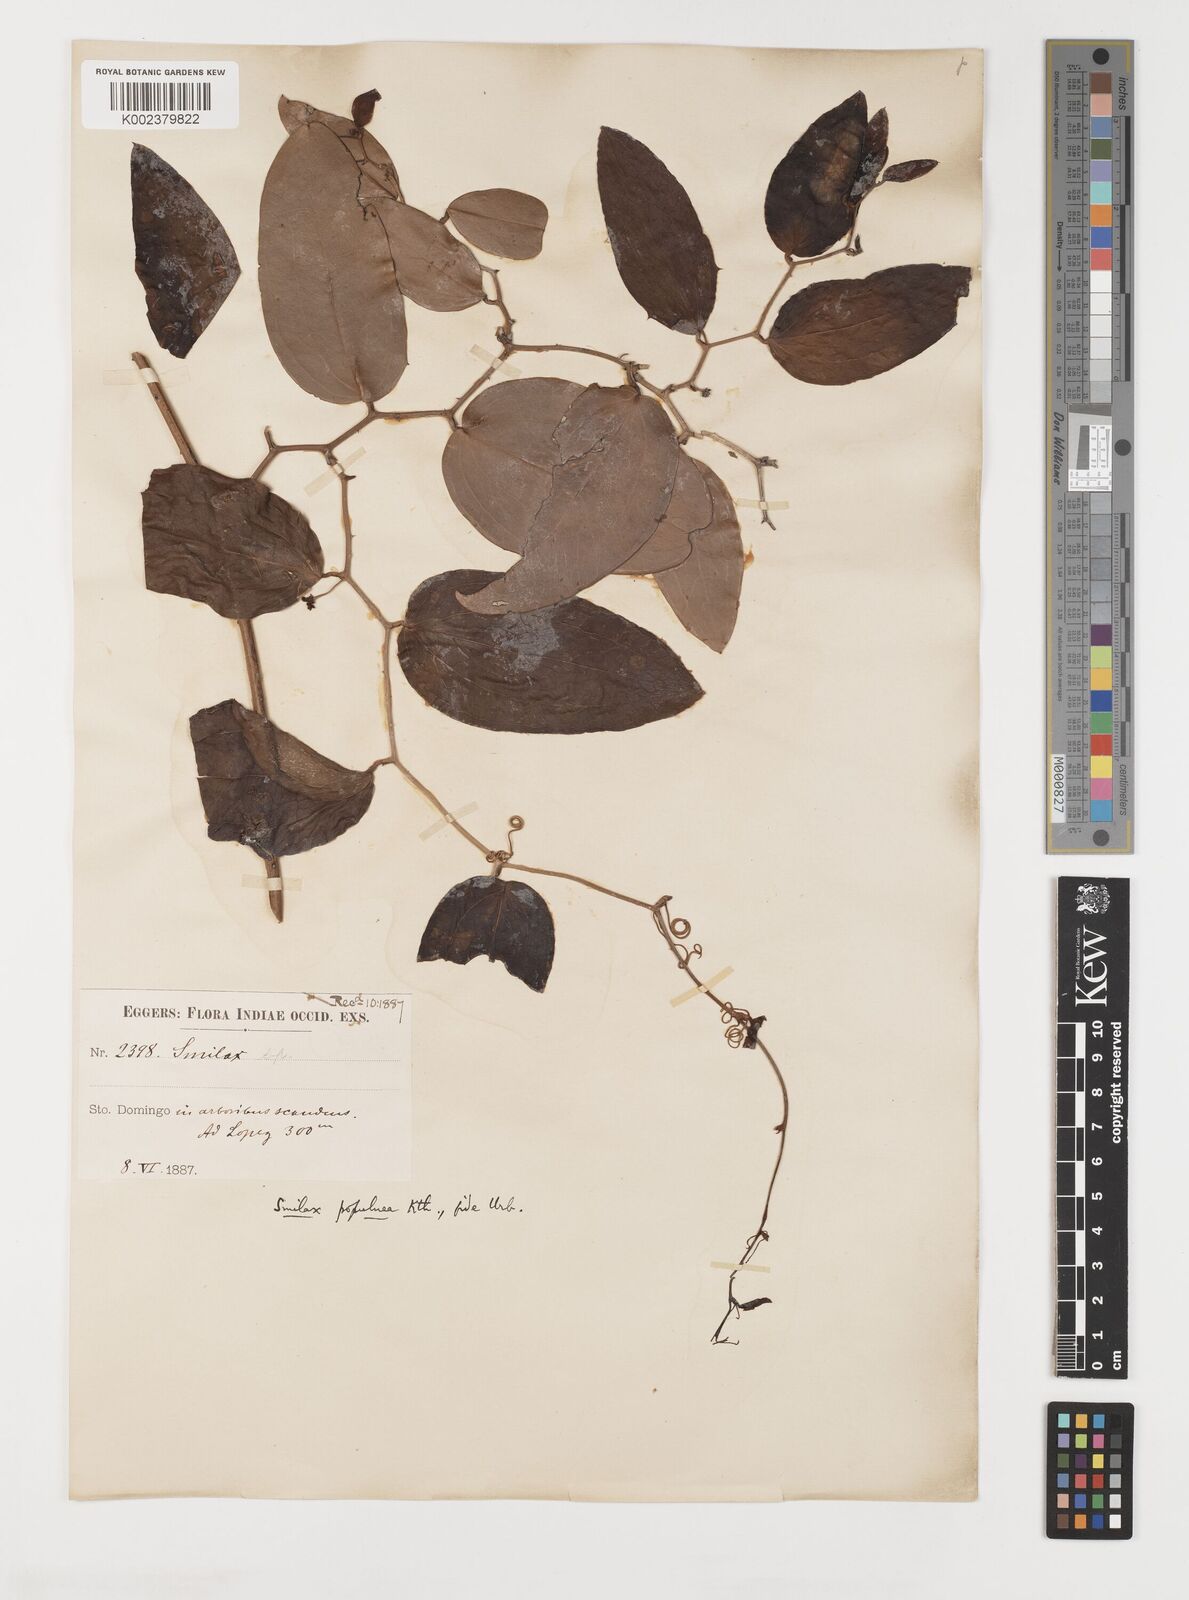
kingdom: Plantae
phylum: Tracheophyta
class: Liliopsida
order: Liliales
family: Smilacaceae
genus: Smilax
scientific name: Smilax populnea
